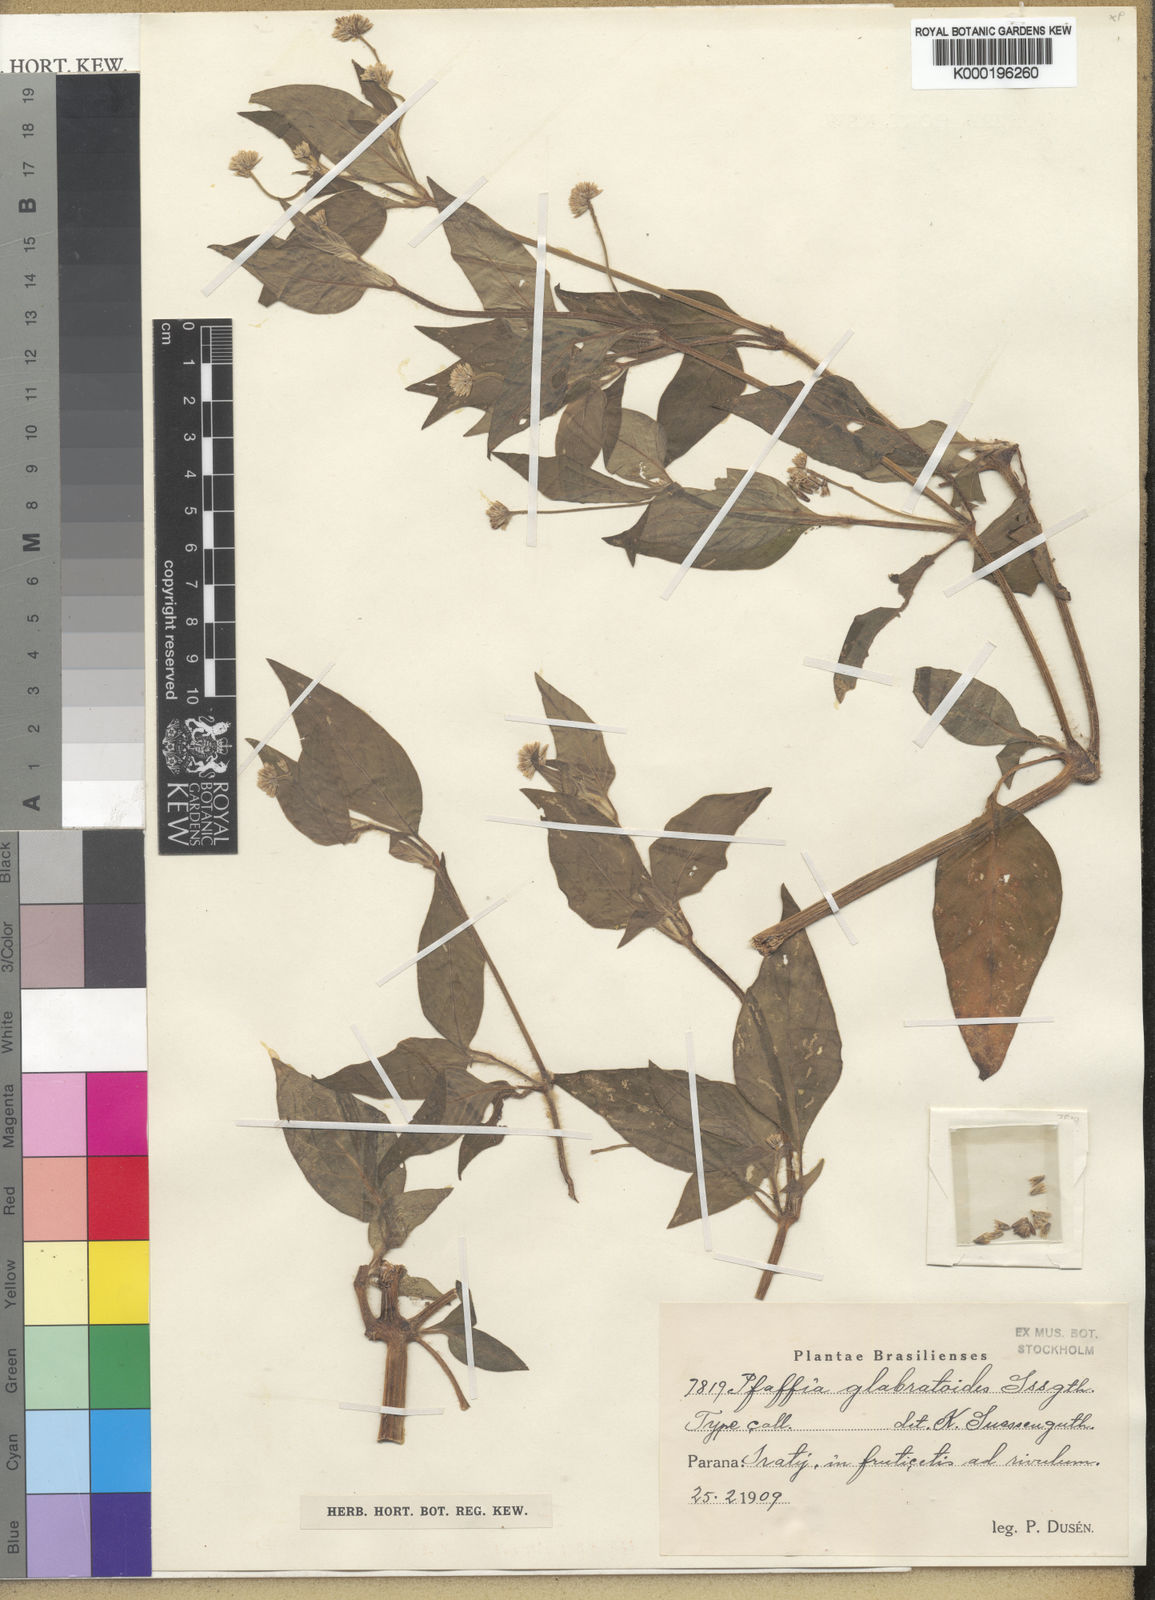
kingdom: Plantae
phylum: Tracheophyta
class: Magnoliopsida
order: Caryophyllales
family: Amaranthaceae
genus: Quaternella
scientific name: Quaternella glabratoides
